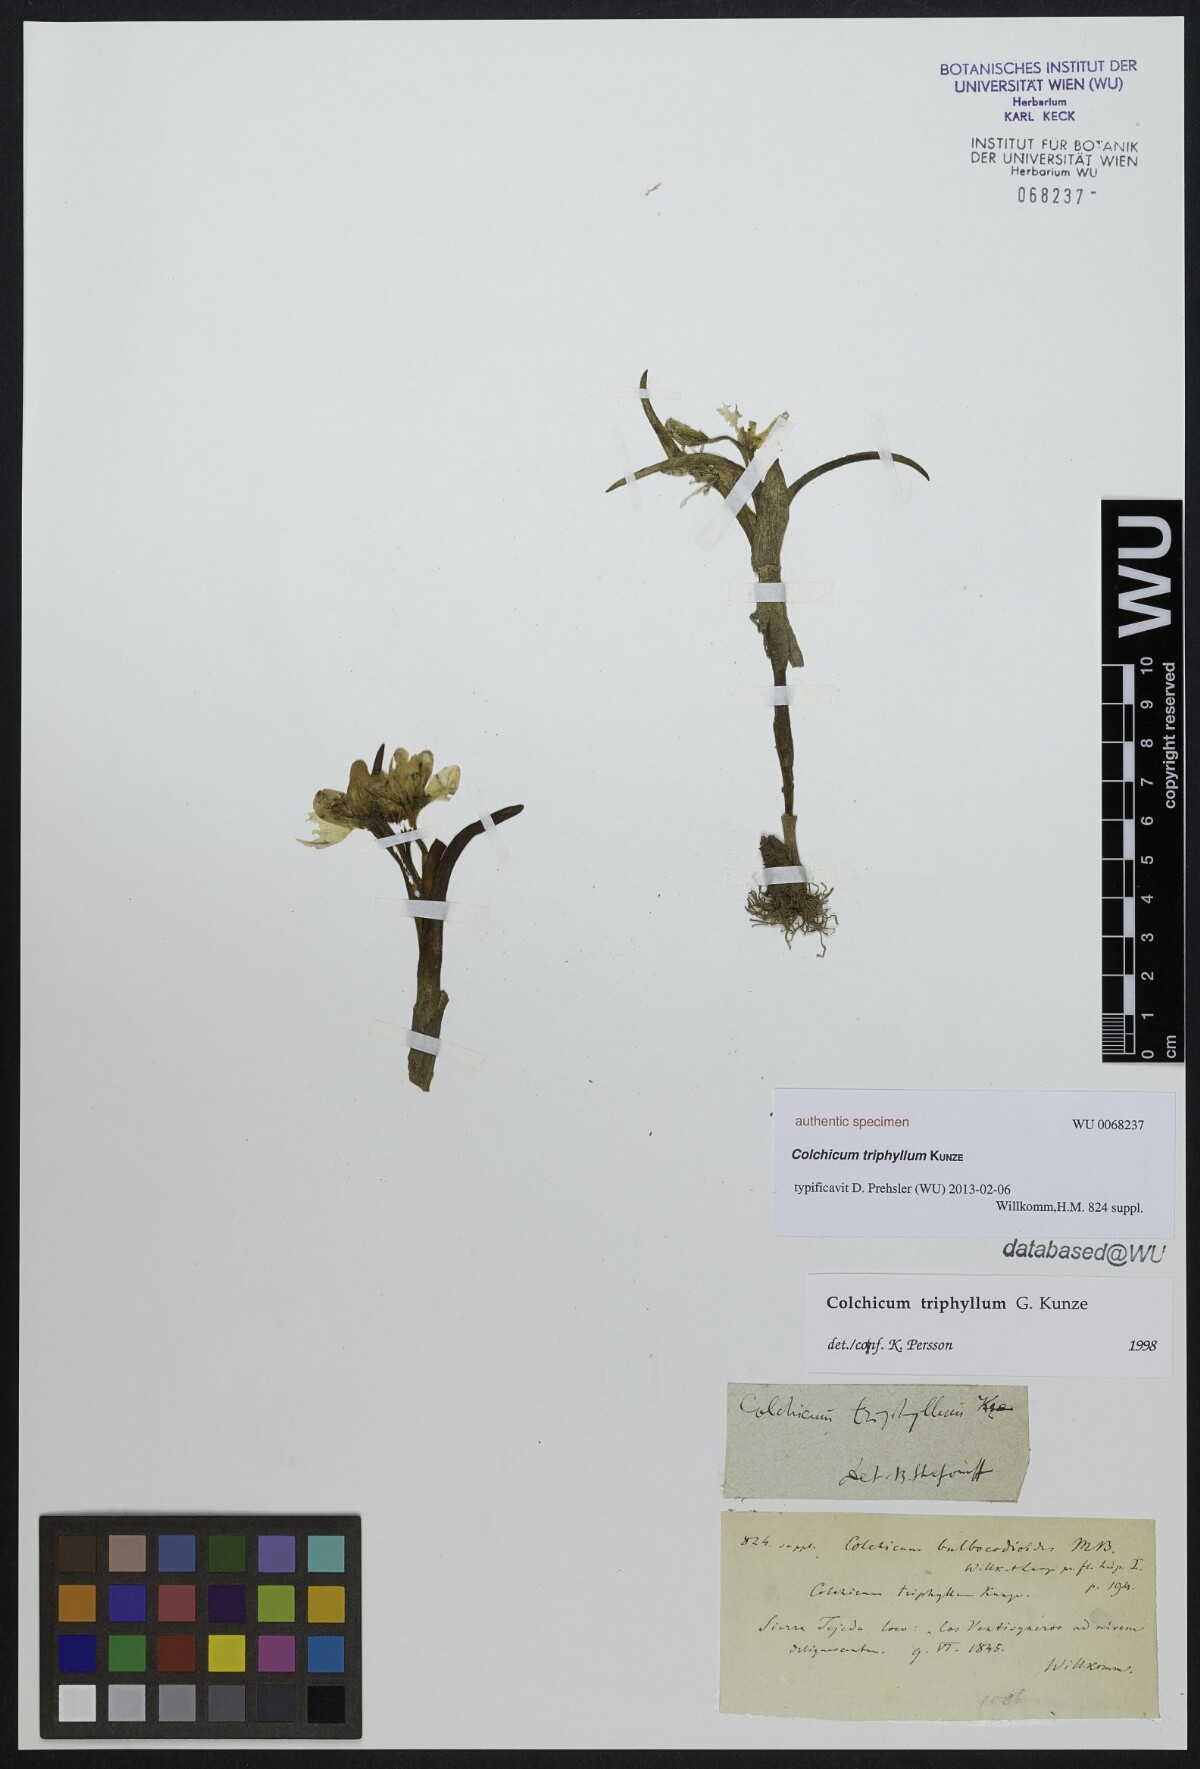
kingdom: Plantae
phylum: Tracheophyta
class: Liliopsida
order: Liliales
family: Colchicaceae
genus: Colchicum
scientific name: Colchicum triphyllum
